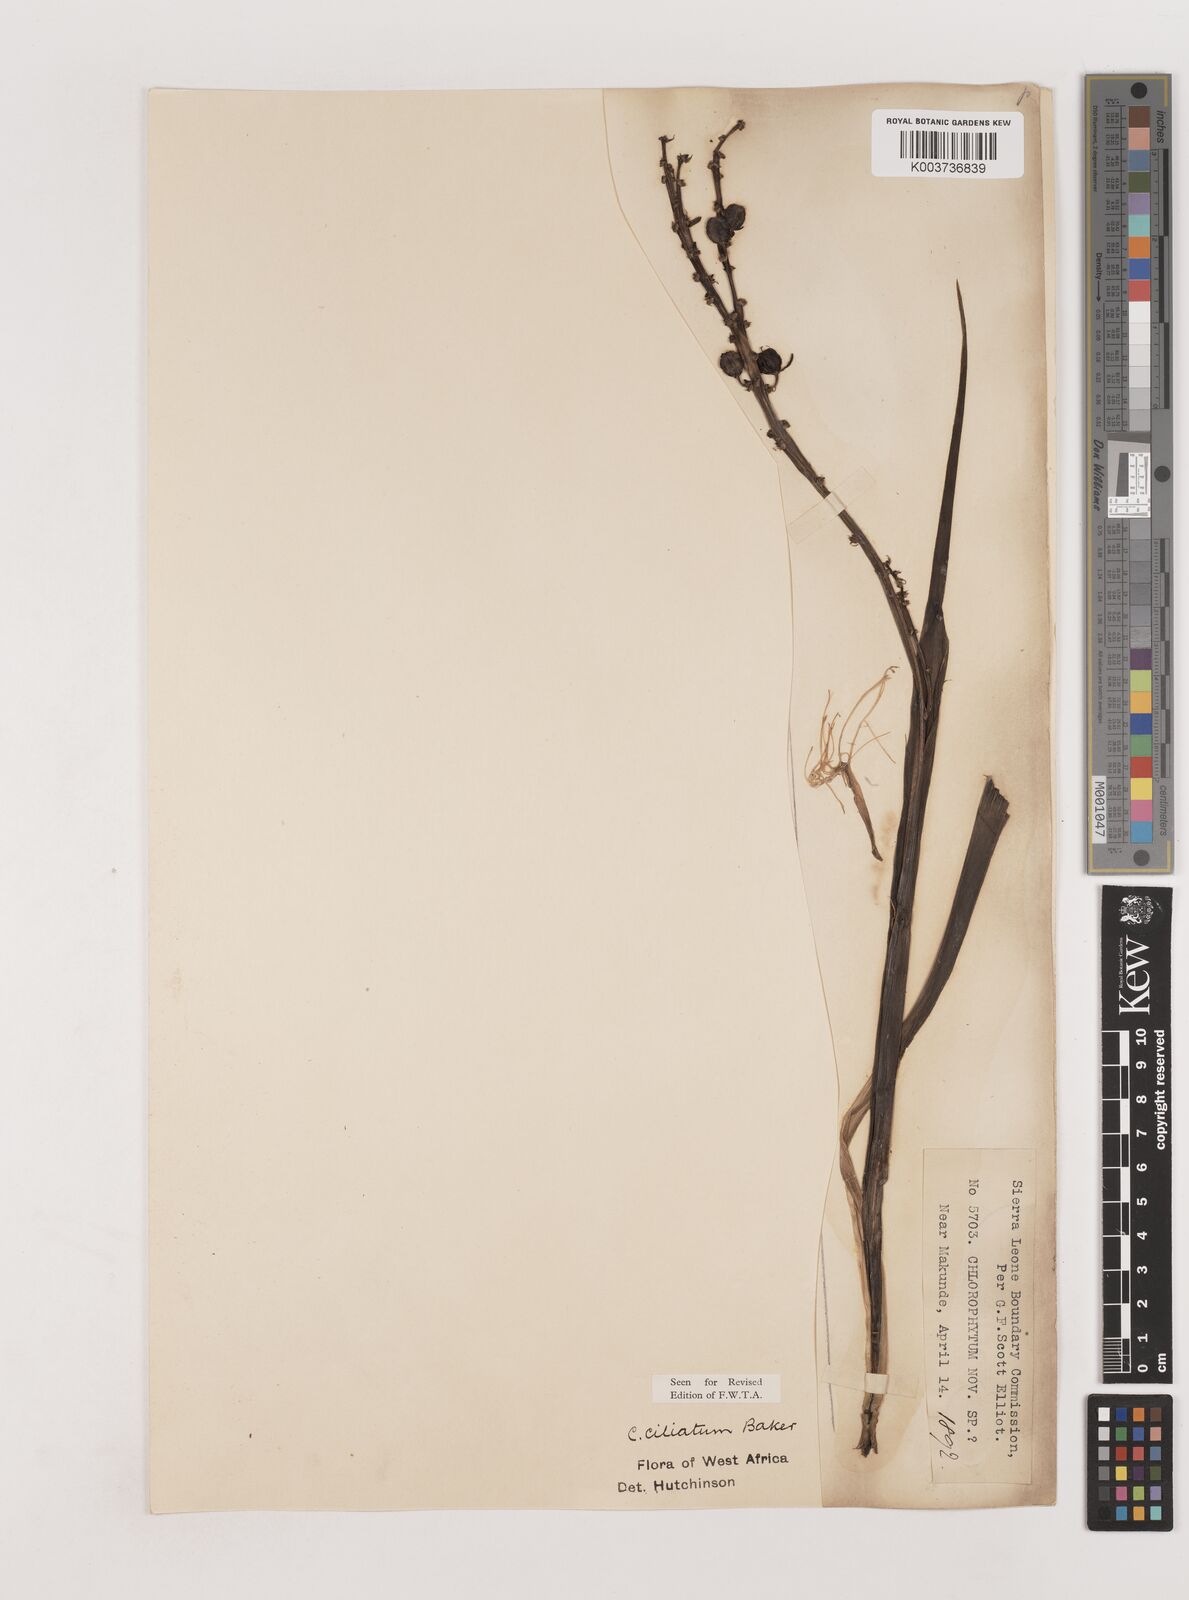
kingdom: Plantae
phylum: Tracheophyta
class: Liliopsida
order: Asparagales
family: Asparagaceae
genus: Chlorophytum
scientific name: Chlorophytum blepharophyllum
